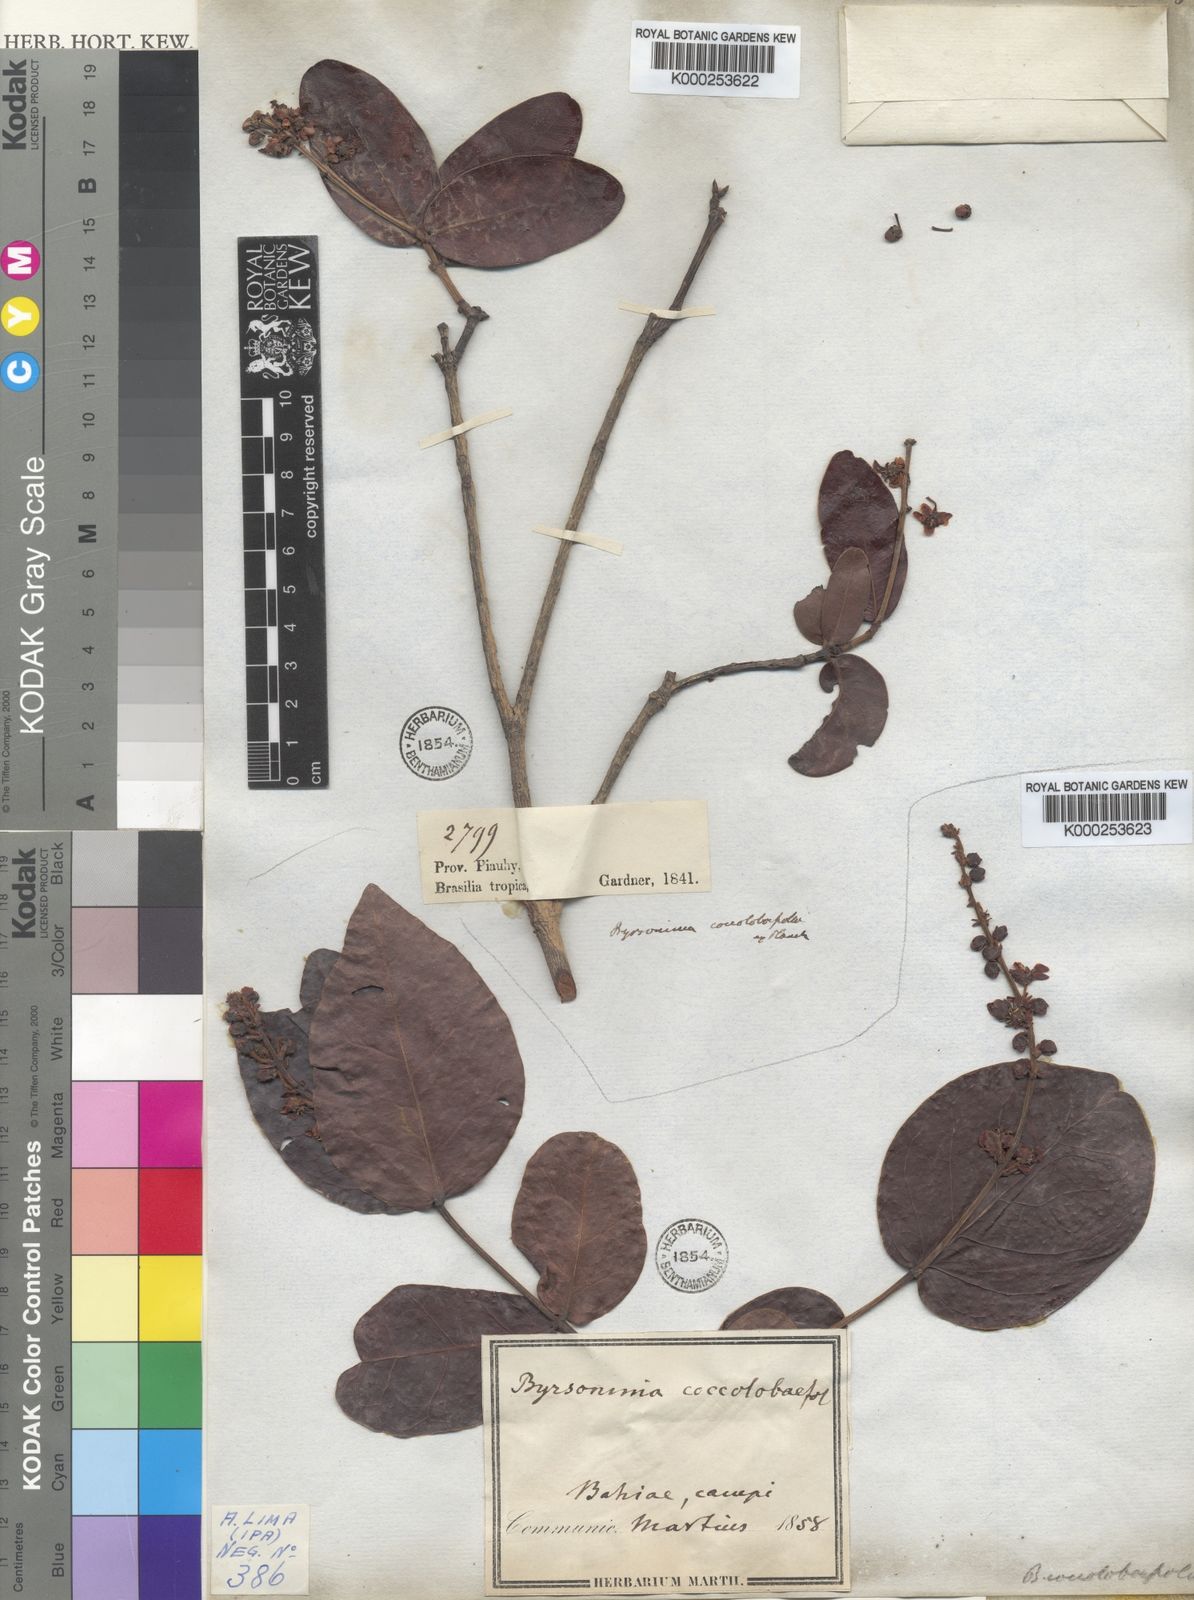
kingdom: Plantae
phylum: Tracheophyta
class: Magnoliopsida
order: Malpighiales
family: Malpighiaceae
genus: Byrsonima
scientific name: Byrsonima subcordata
